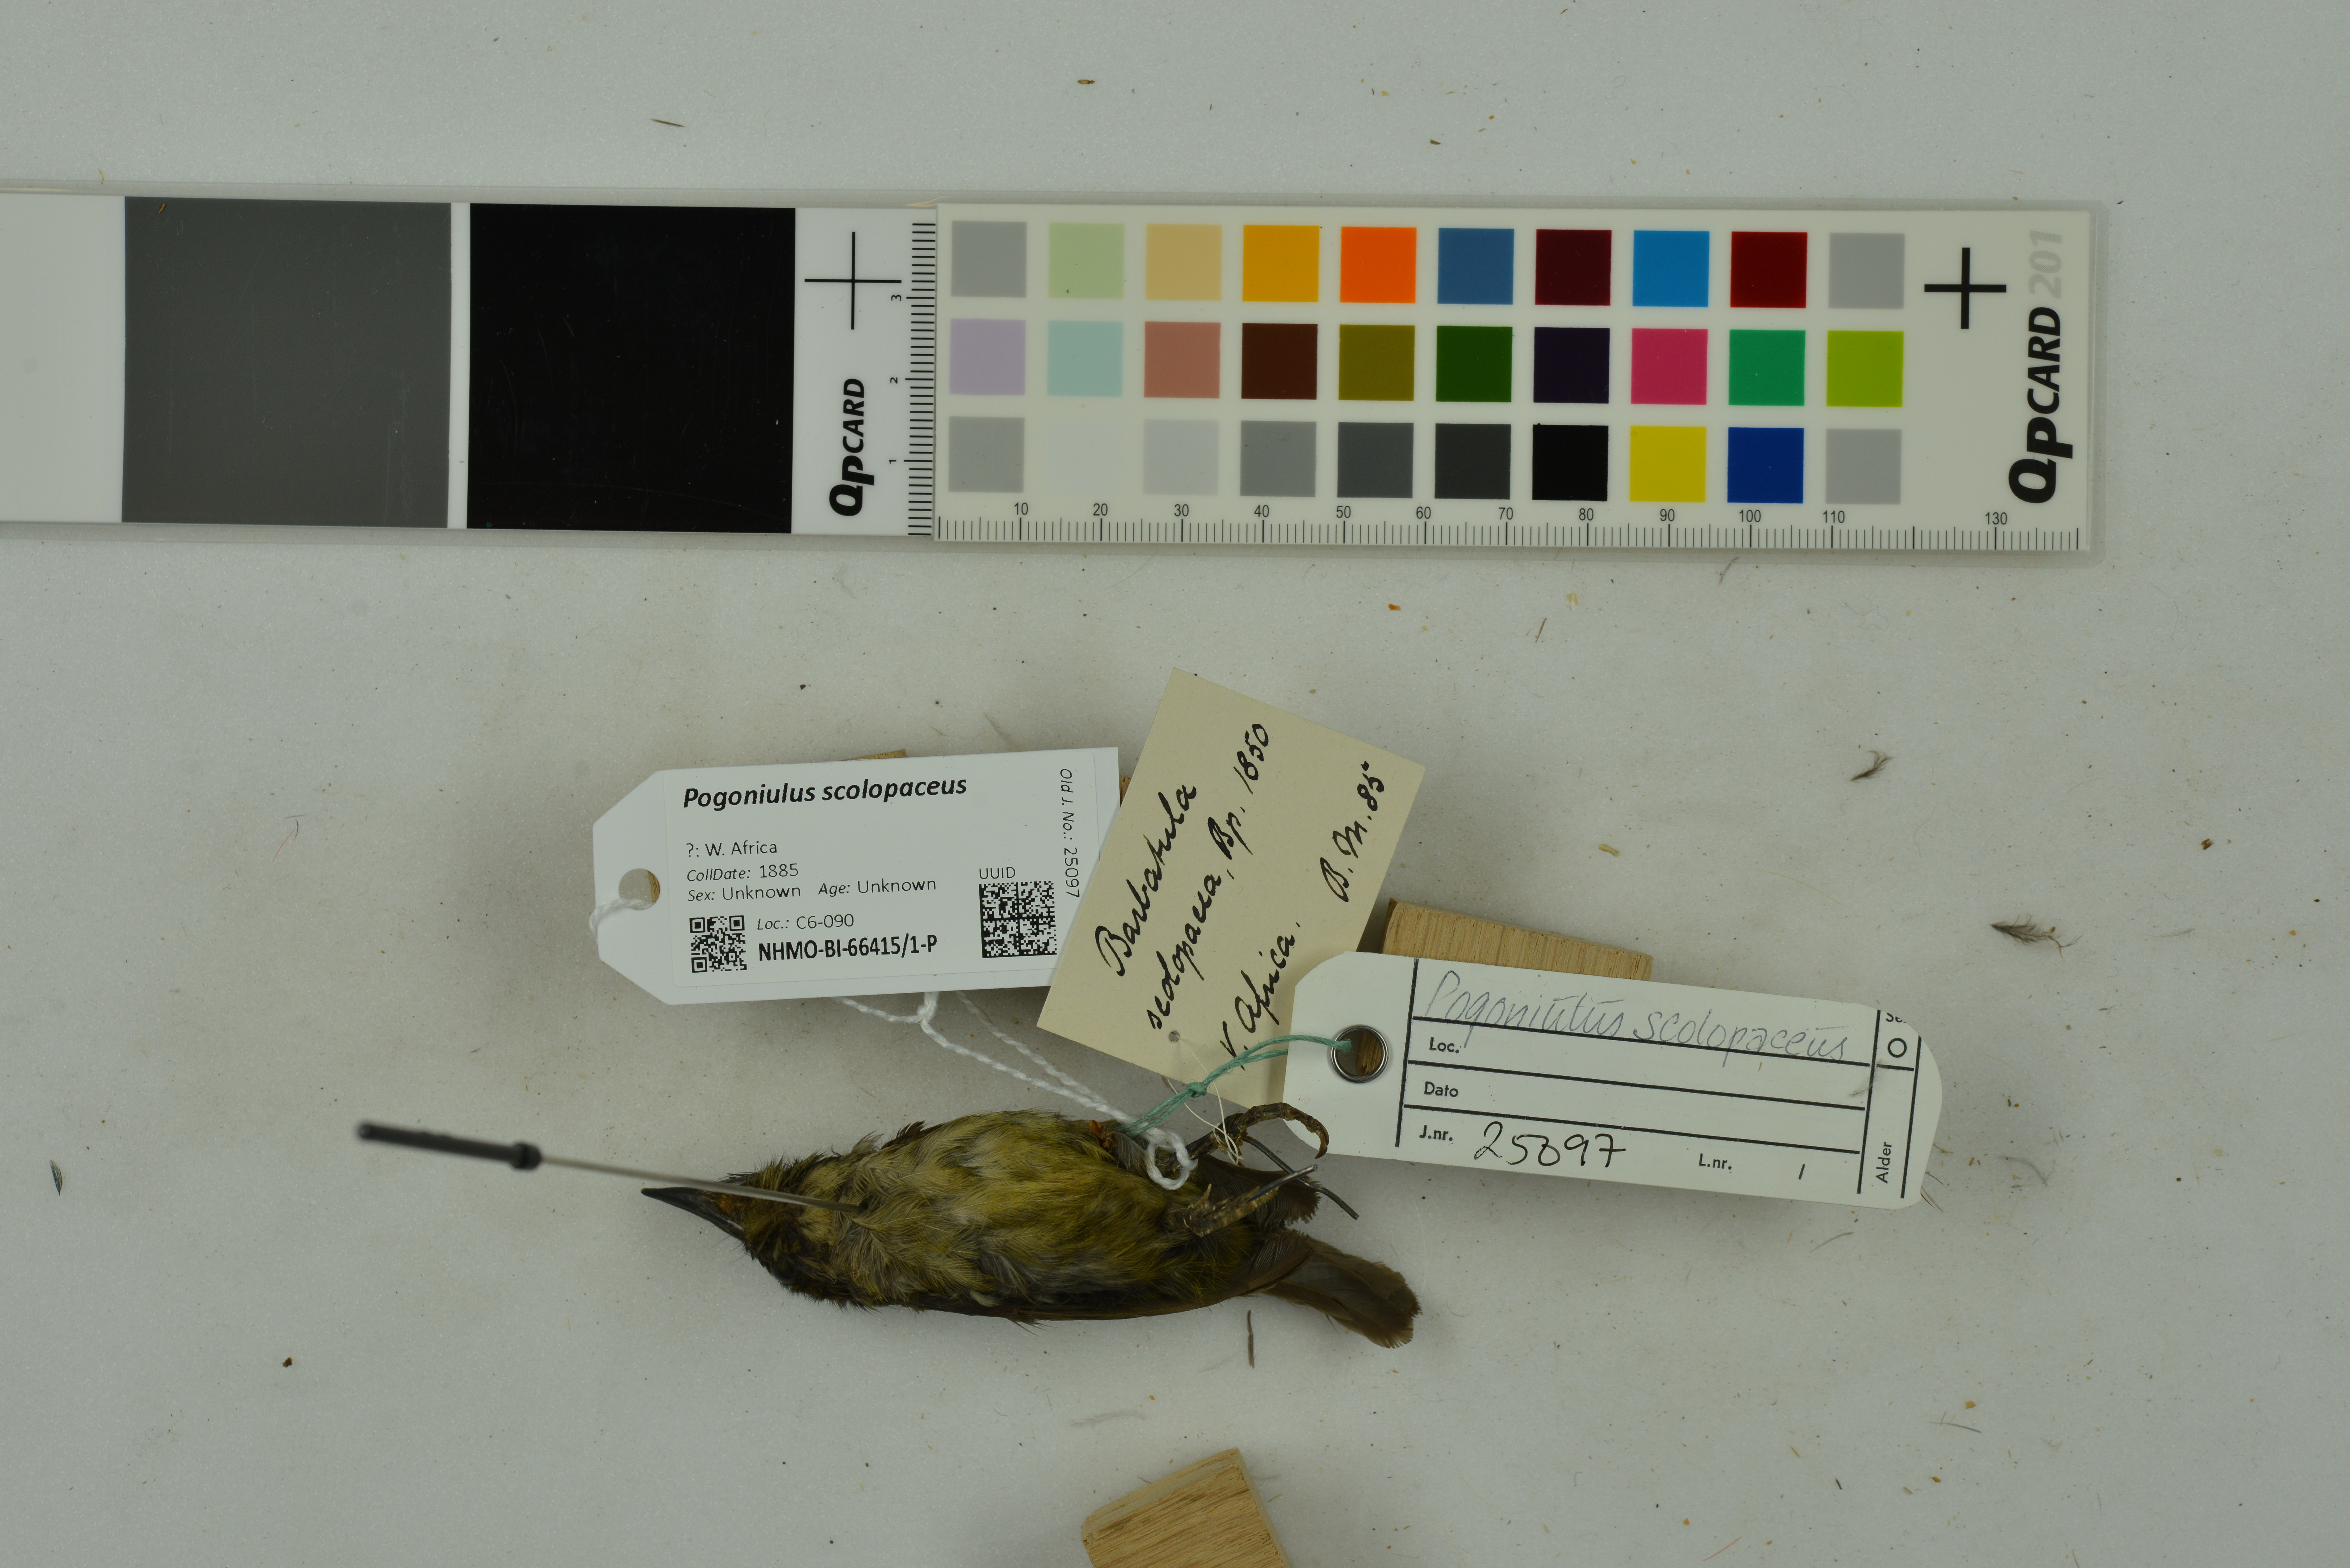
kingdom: Animalia
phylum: Chordata
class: Aves
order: Piciformes
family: Lybiidae
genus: Pogoniulus
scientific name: Pogoniulus scolopaceus
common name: Speckled tinkerbird
